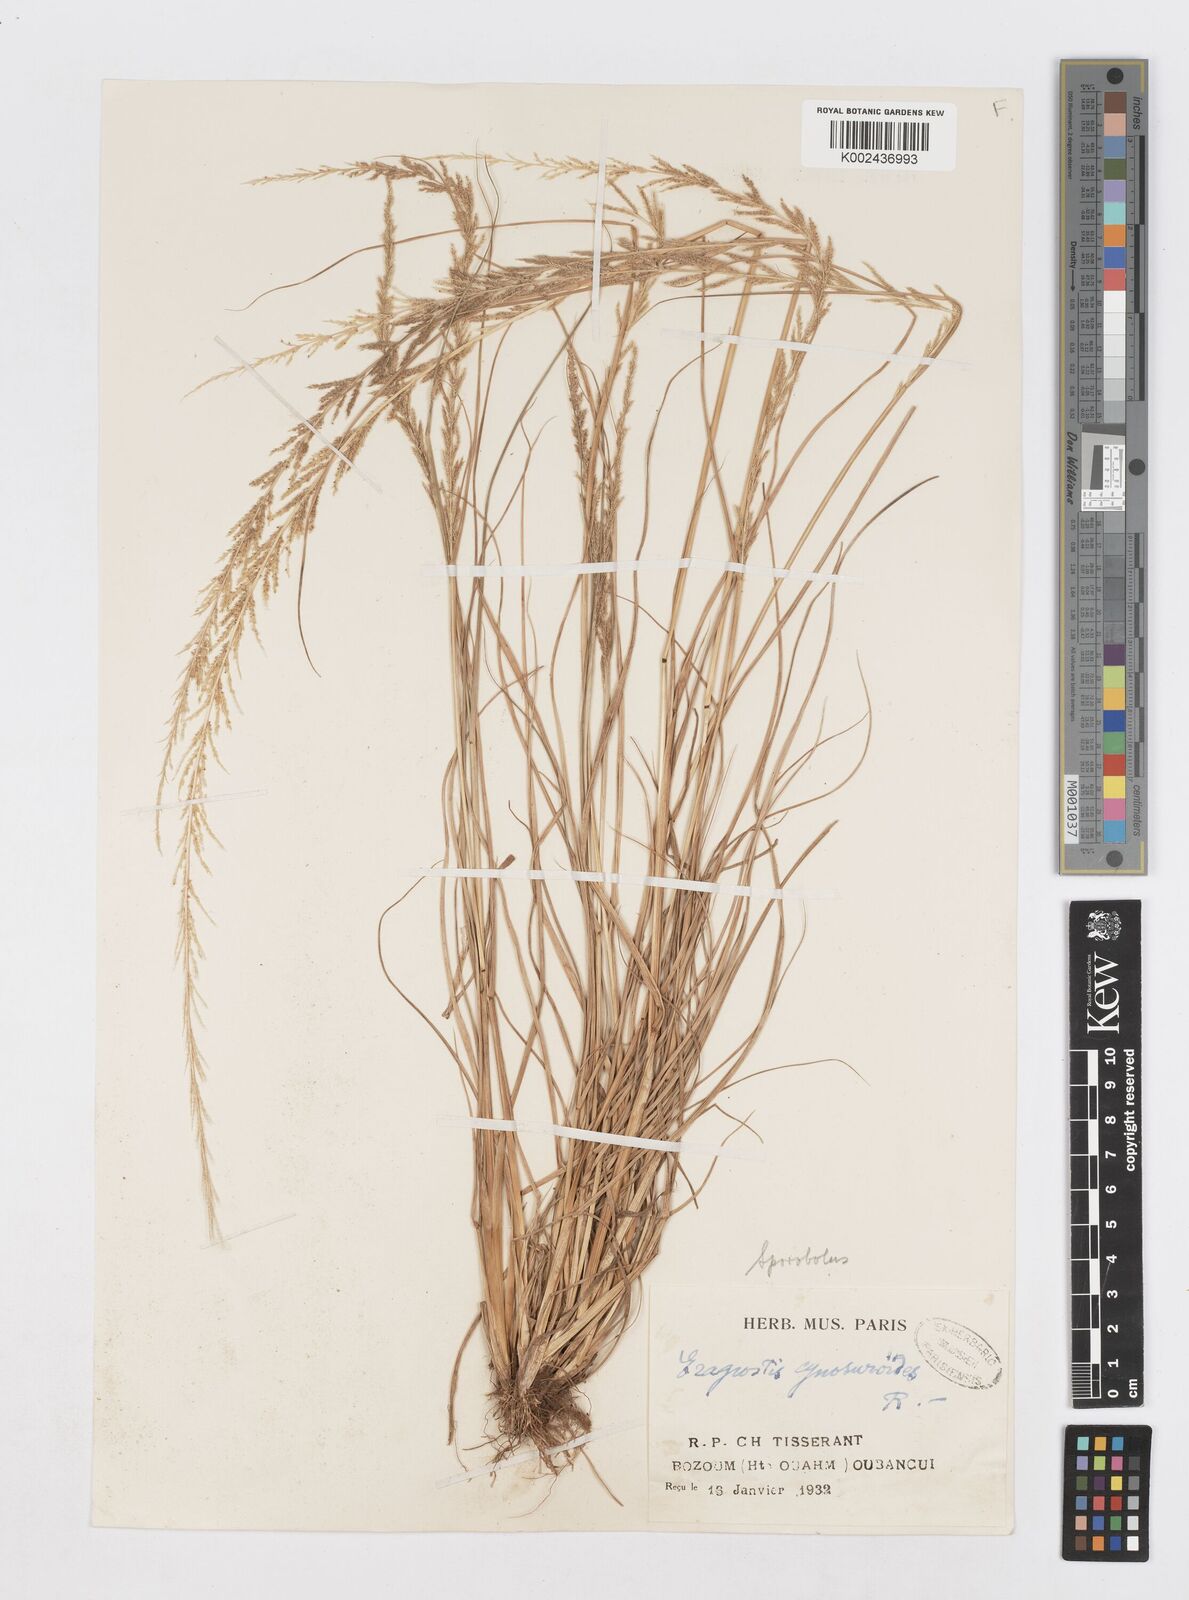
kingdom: Plantae
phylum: Tracheophyta
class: Liliopsida
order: Poales
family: Poaceae
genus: Sporobolus
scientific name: Sporobolus molleri
